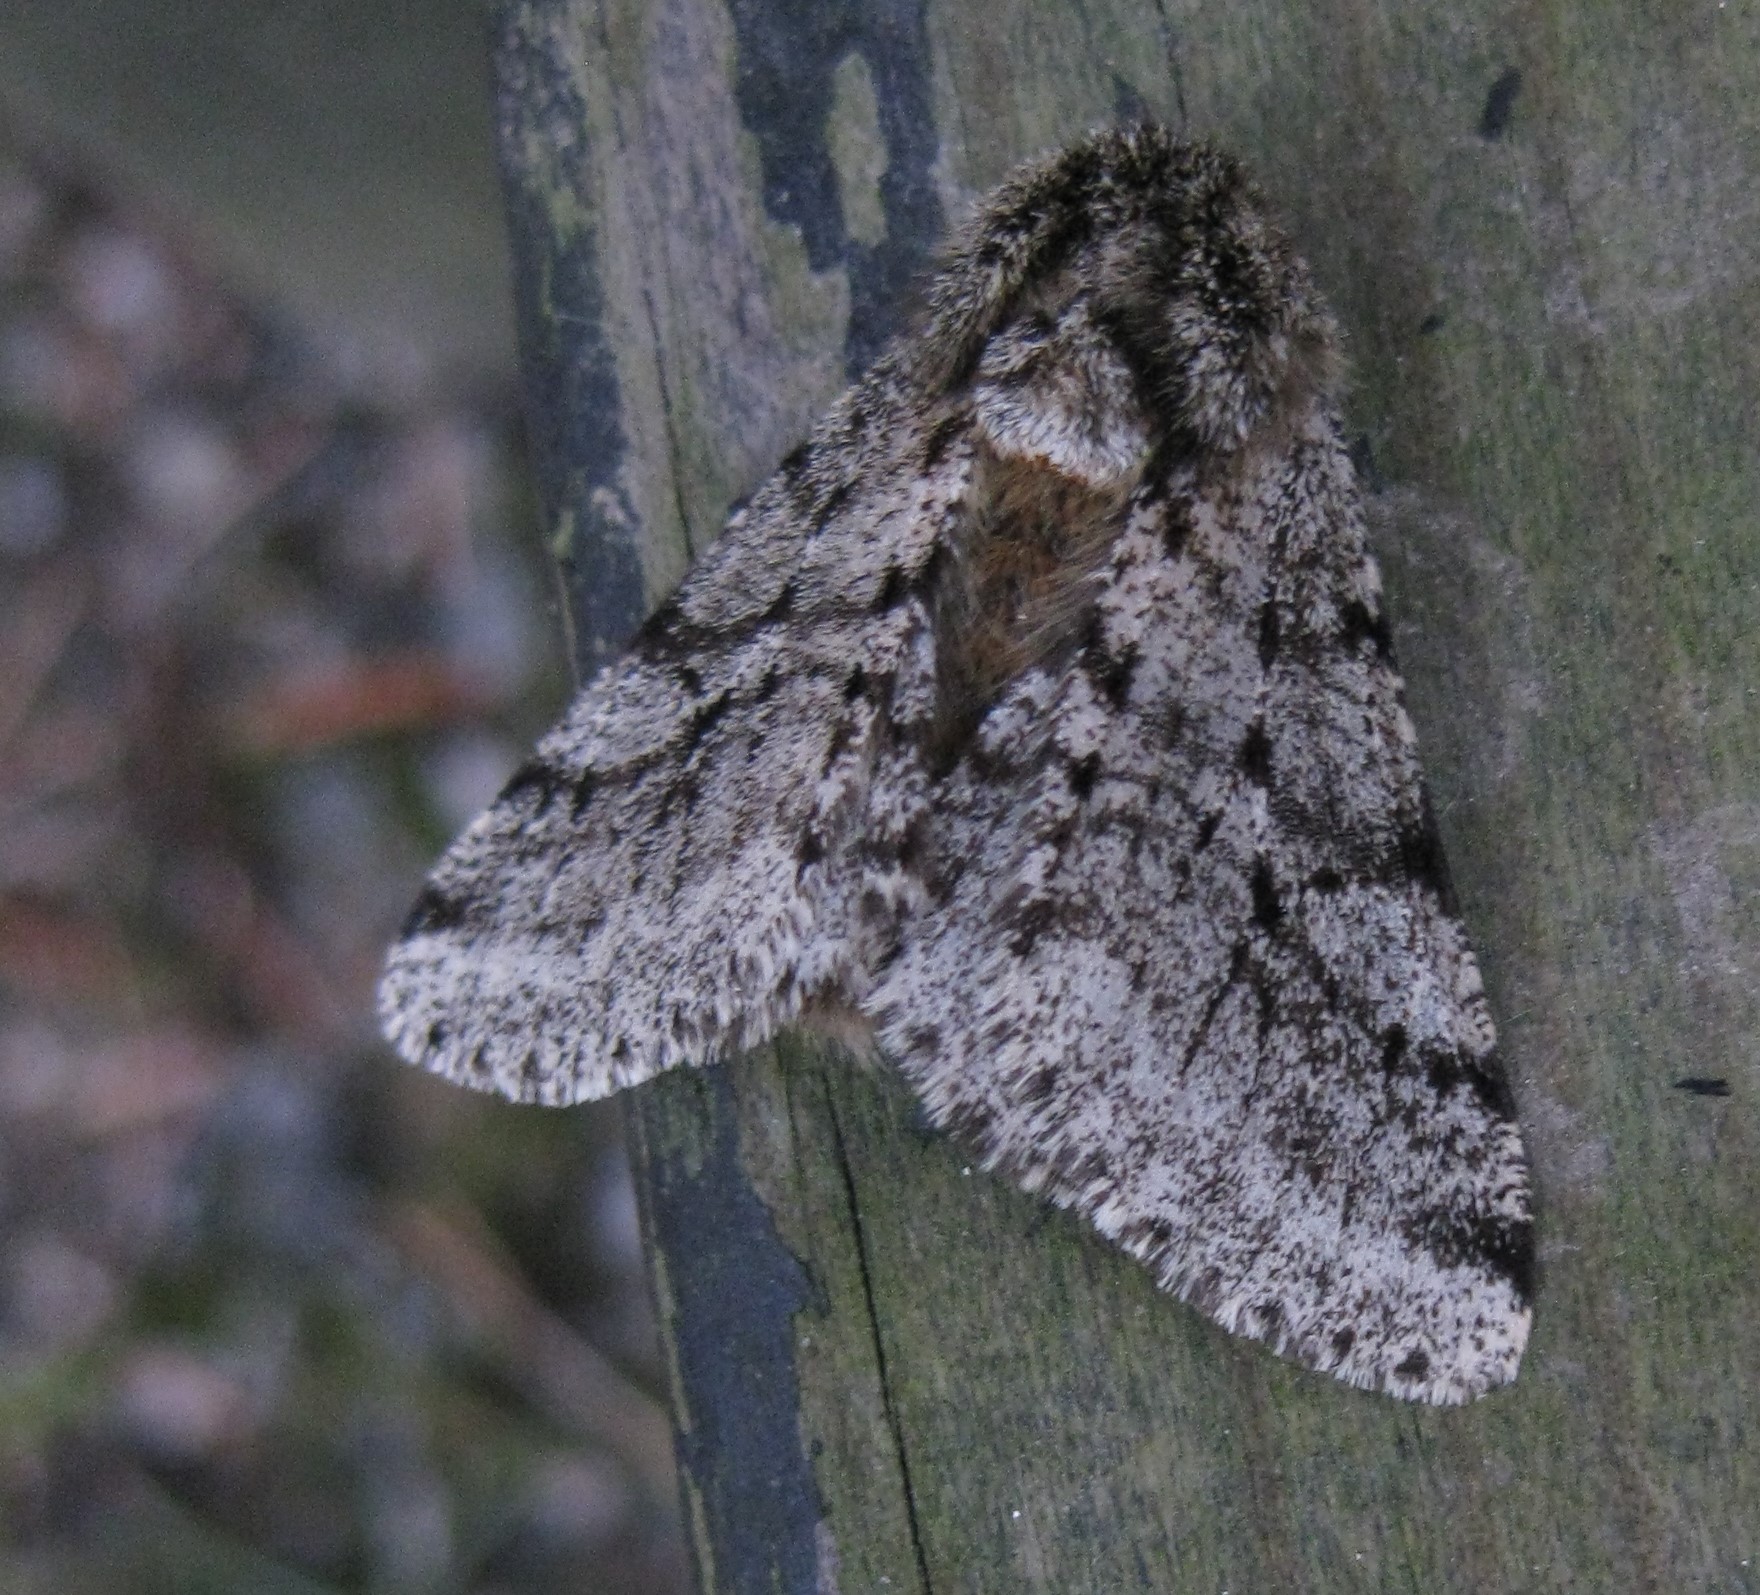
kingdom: Animalia
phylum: Arthropoda
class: Insecta
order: Lepidoptera
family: Geometridae
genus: Lycia
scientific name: Lycia hirtaria
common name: Brindled beauty
